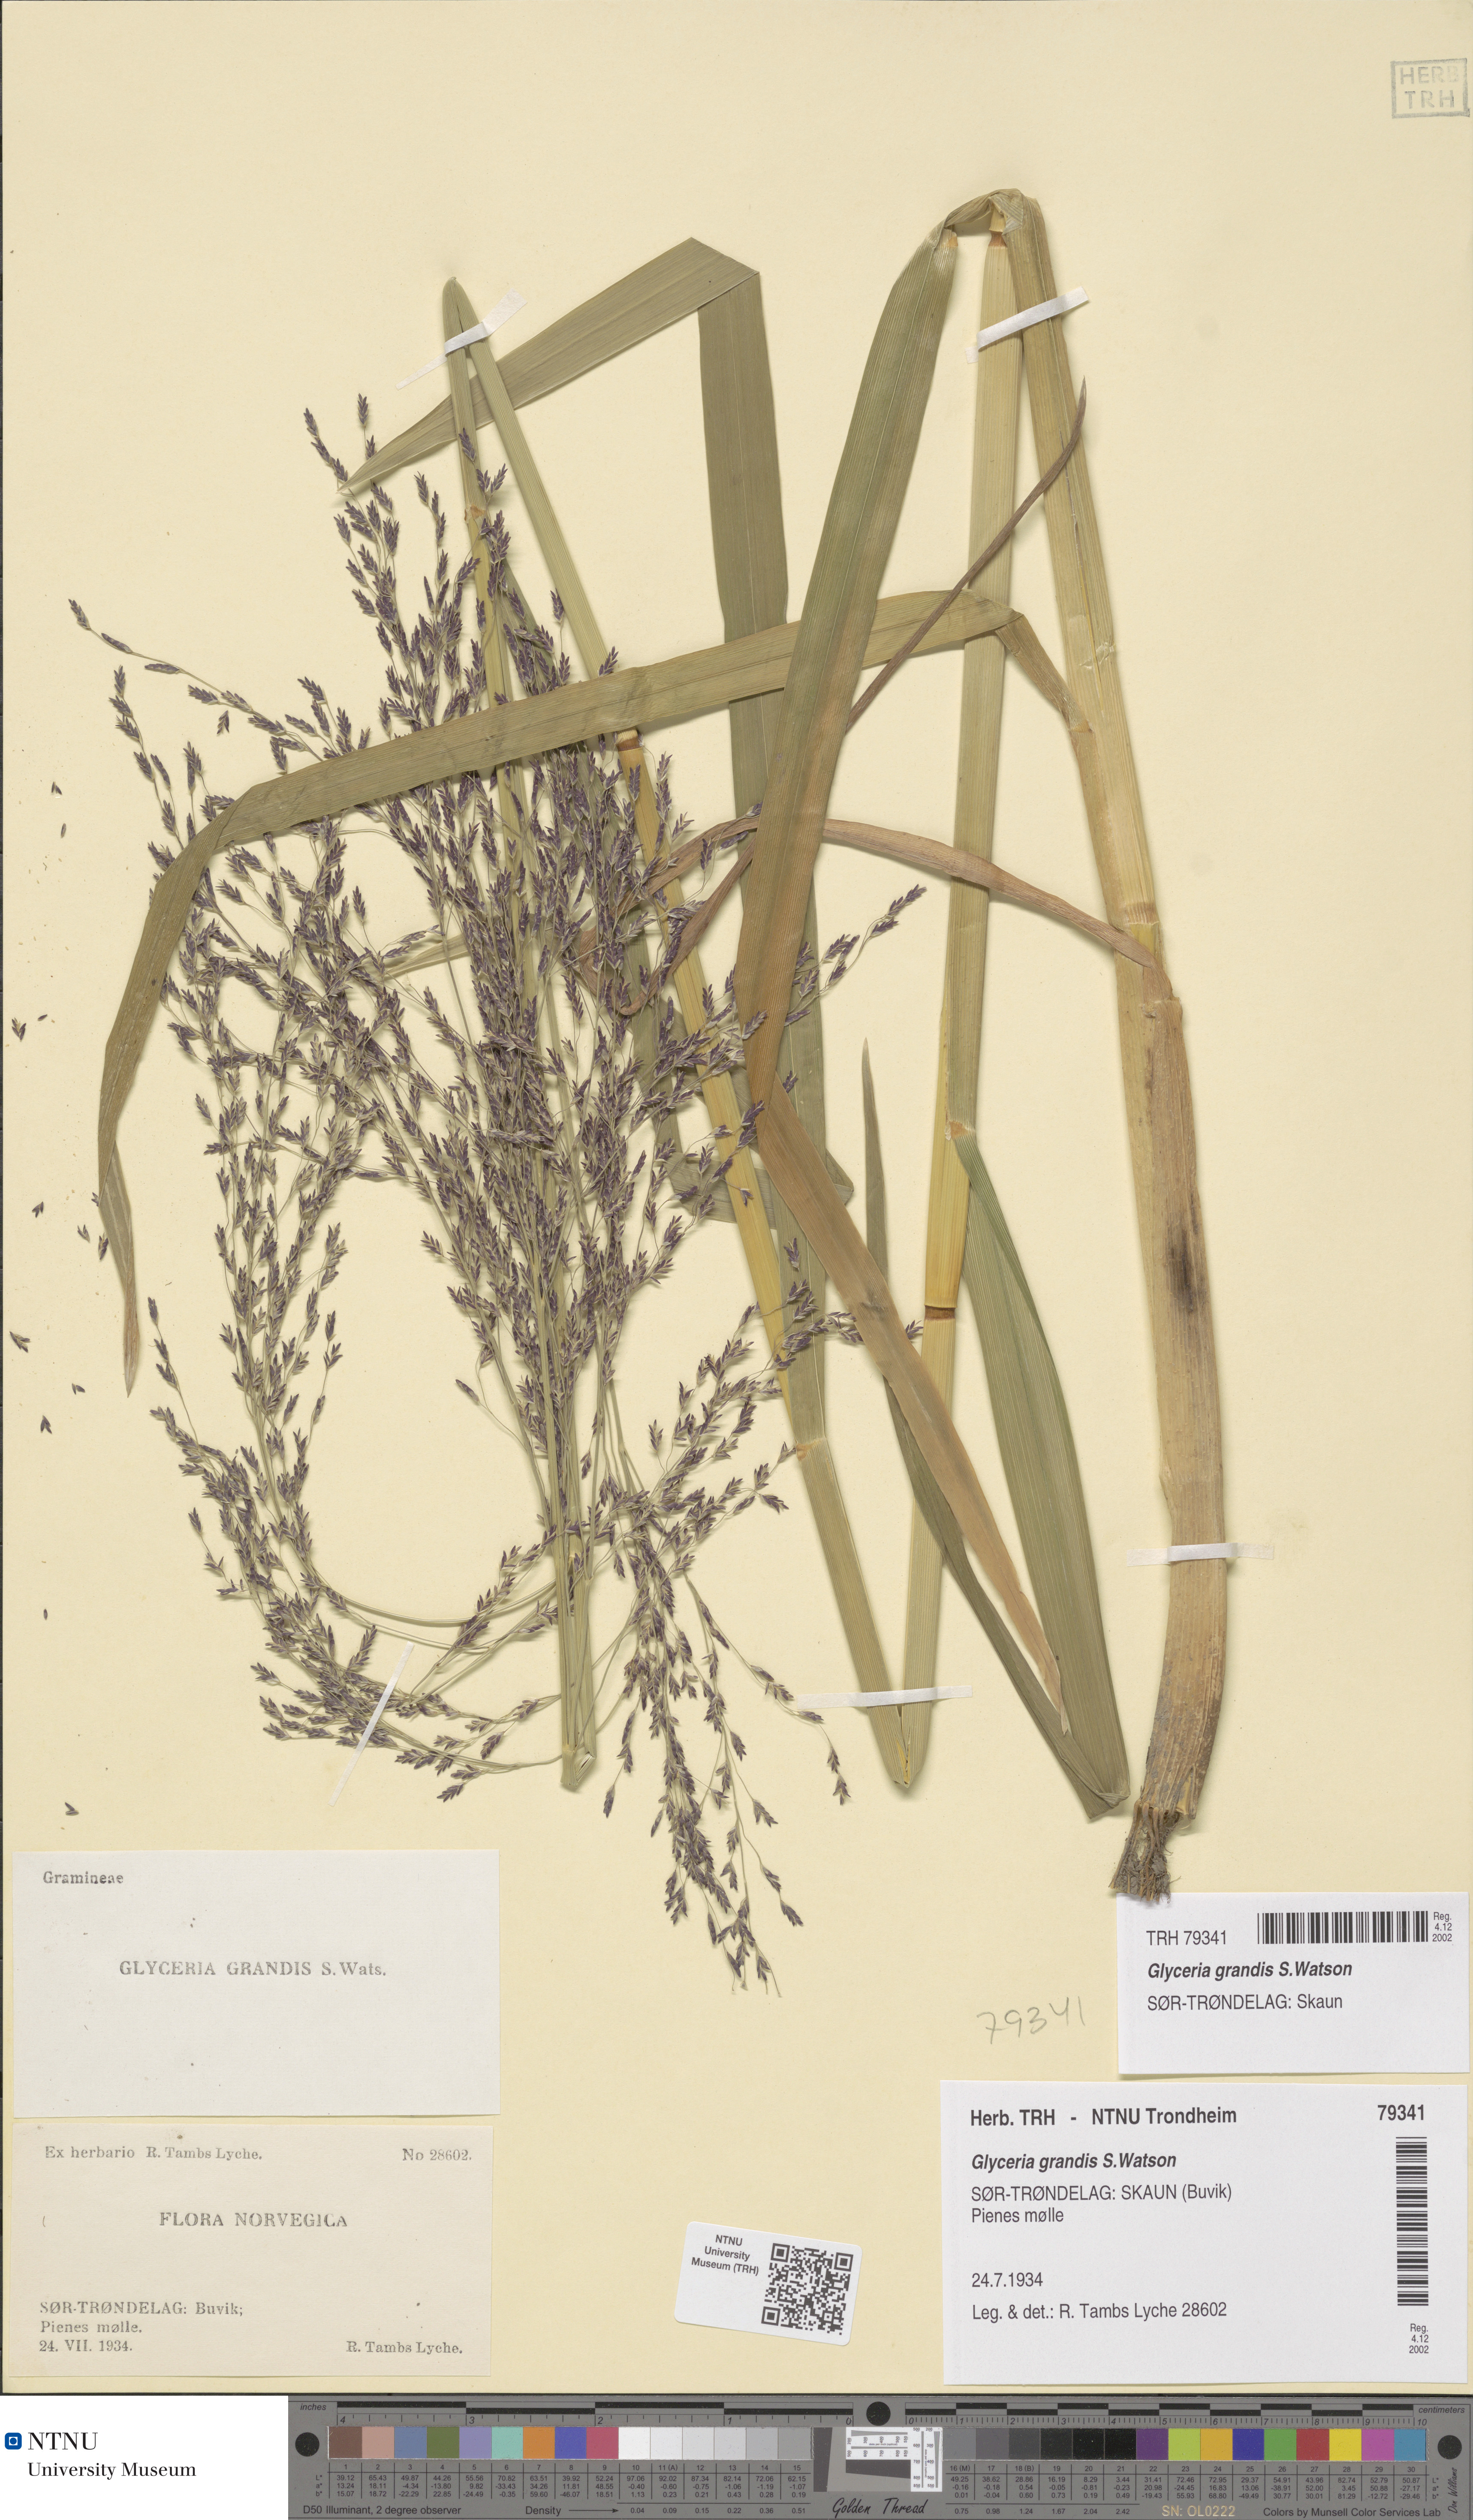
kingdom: Plantae
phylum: Tracheophyta
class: Liliopsida
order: Poales
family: Poaceae
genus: Glyceria
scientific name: Glyceria grandis
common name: American glyceria
